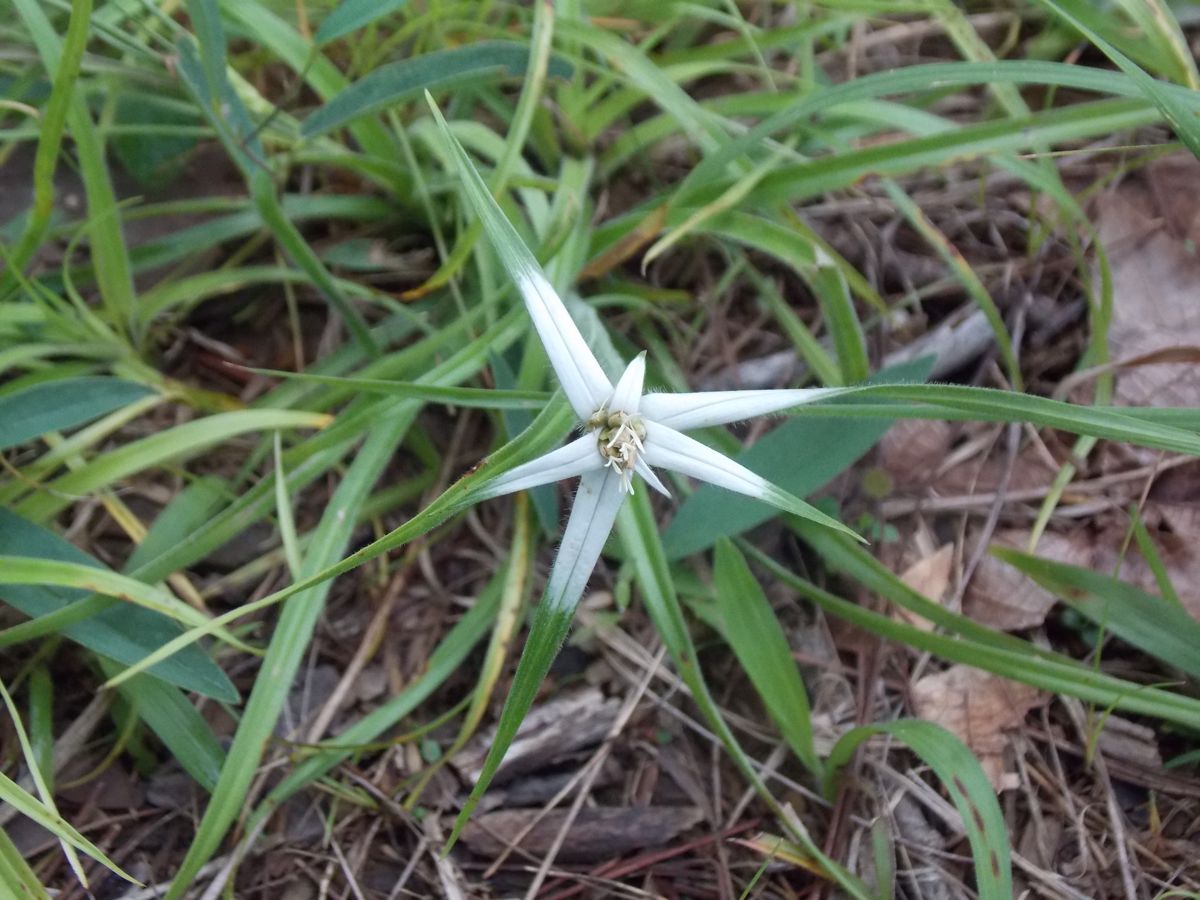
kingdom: Plantae
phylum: Tracheophyta
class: Liliopsida
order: Poales
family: Cyperaceae
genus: Rhynchospora
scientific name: Rhynchospora nervosa
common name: Star sedge
